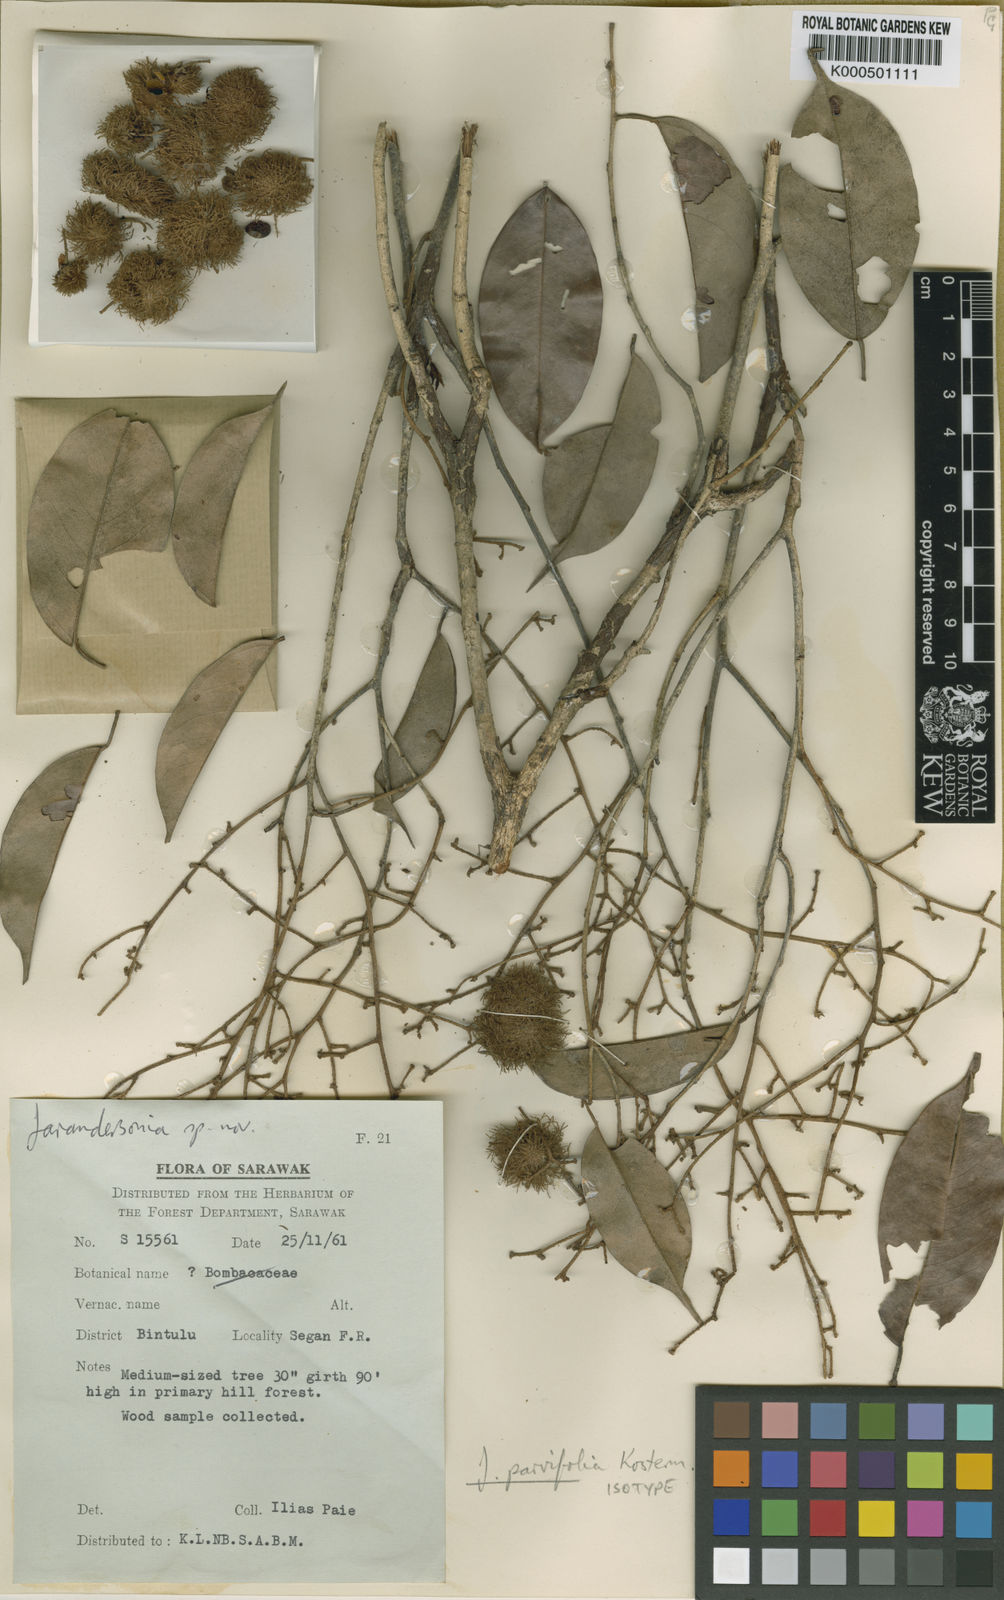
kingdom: Plantae
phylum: Tracheophyta
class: Magnoliopsida
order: Malvales
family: Malvaceae
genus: Jarandersonia
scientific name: Jarandersonia parvifolia
